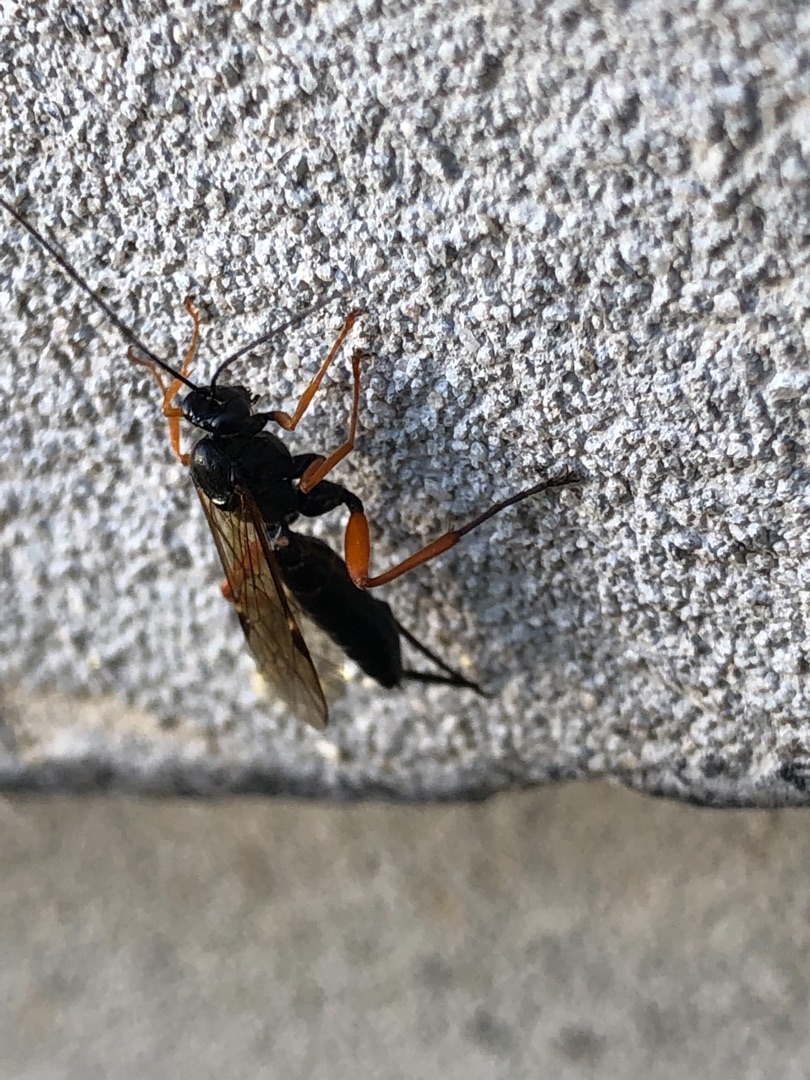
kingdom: Animalia
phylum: Arthropoda
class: Insecta
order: Hymenoptera
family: Ichneumonidae
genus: Pimpla
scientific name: Pimpla rufipes
